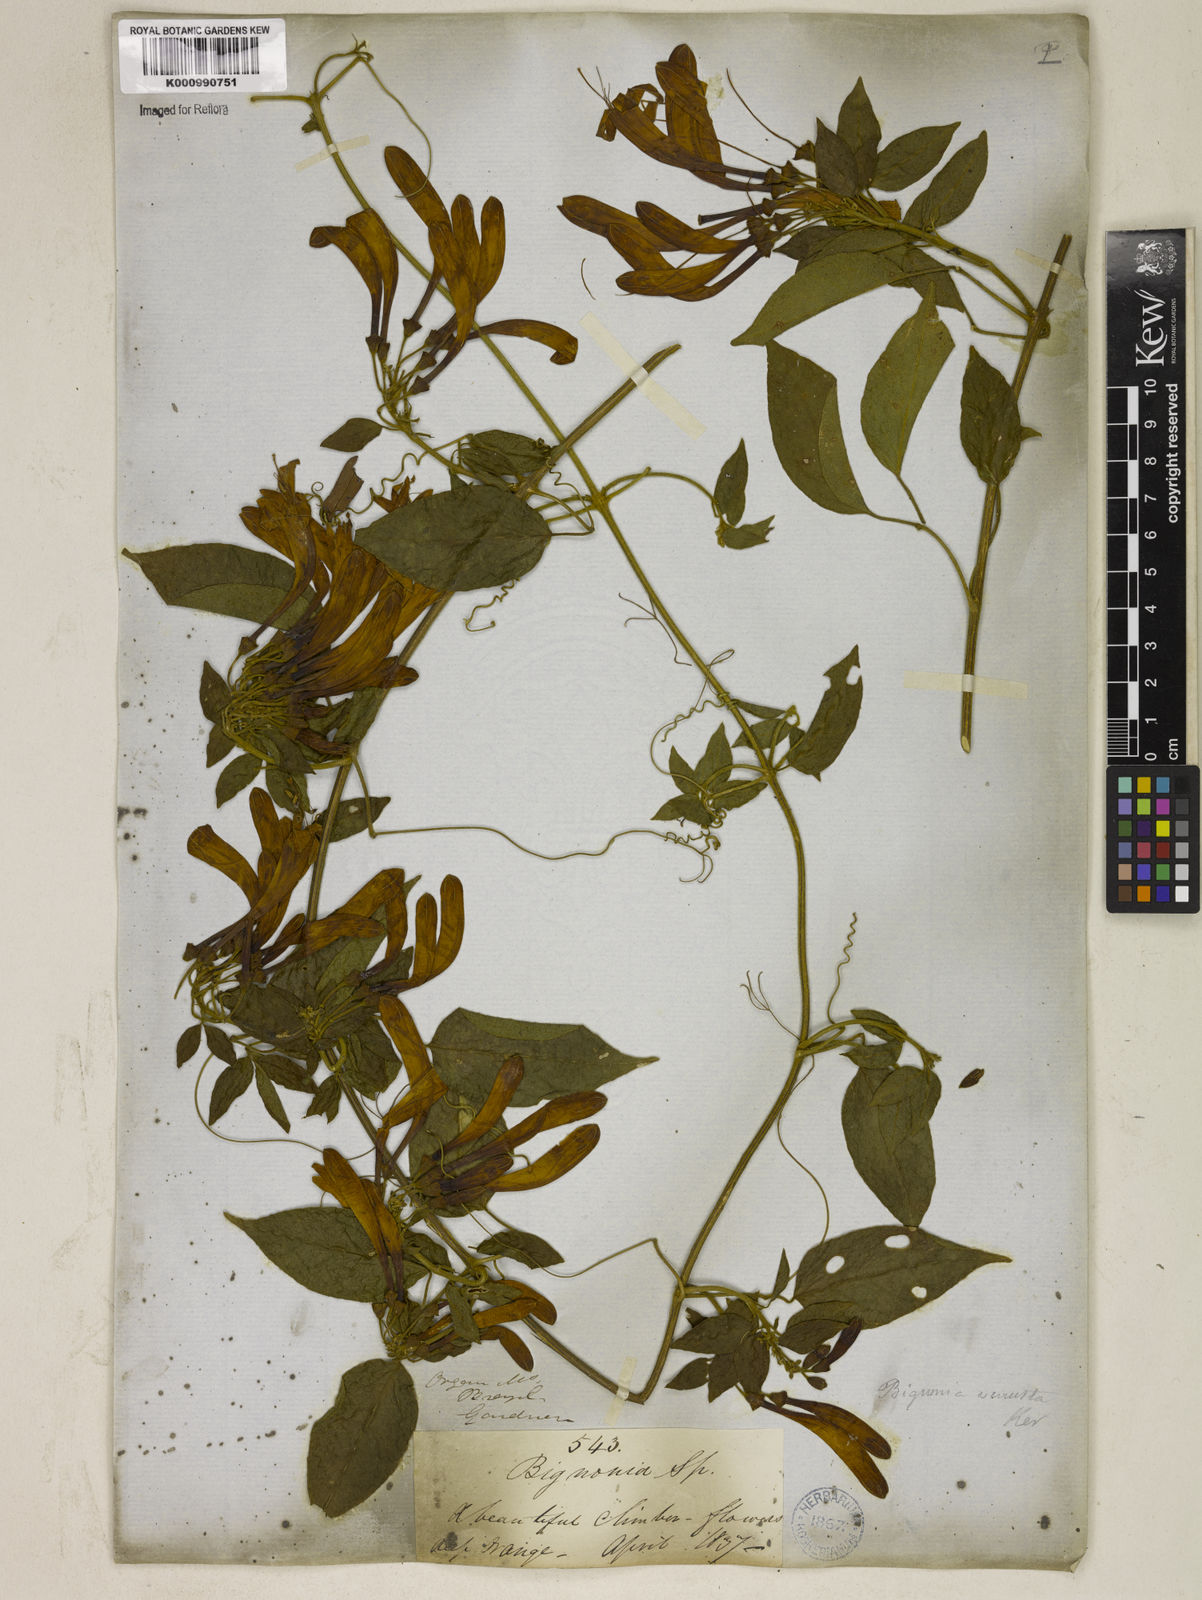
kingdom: Plantae
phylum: Tracheophyta
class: Magnoliopsida
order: Lamiales
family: Bignoniaceae
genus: Pyrostegia
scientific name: Pyrostegia venusta
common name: Flamevine
